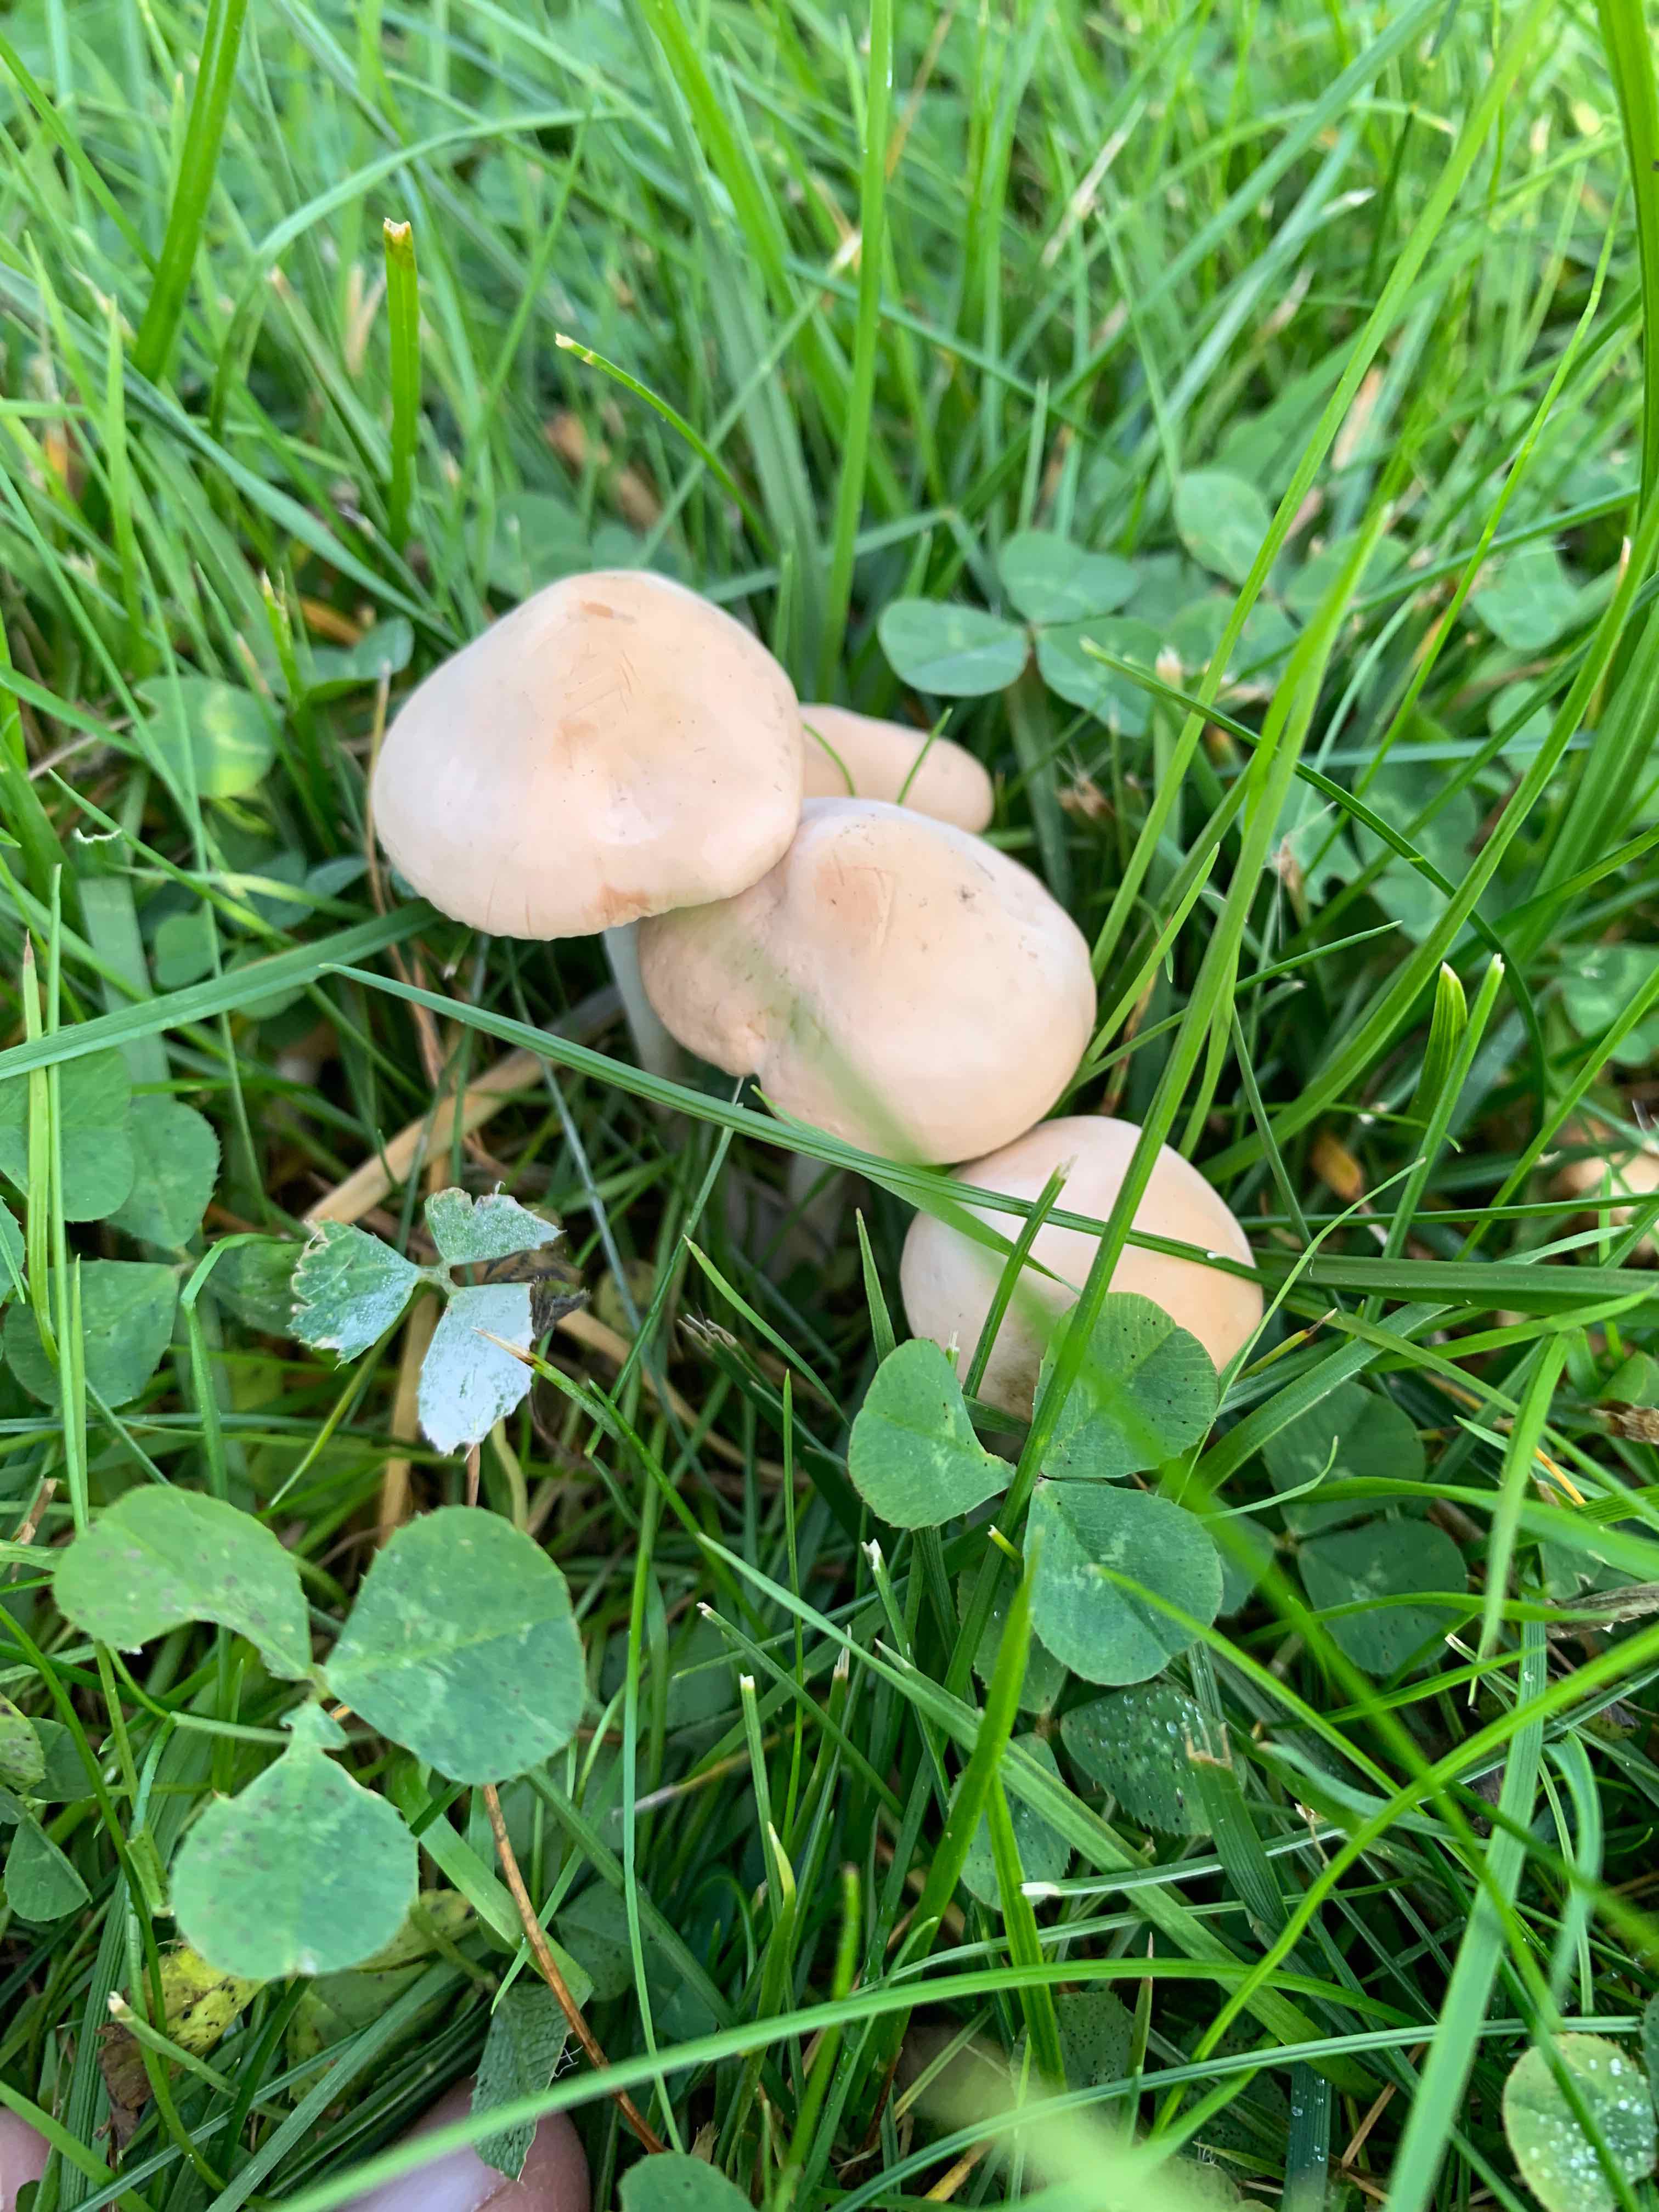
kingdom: Fungi
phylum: Basidiomycota
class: Agaricomycetes
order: Agaricales
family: Marasmiaceae
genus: Marasmius
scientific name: Marasmius oreades
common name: elledans-bruskhat
